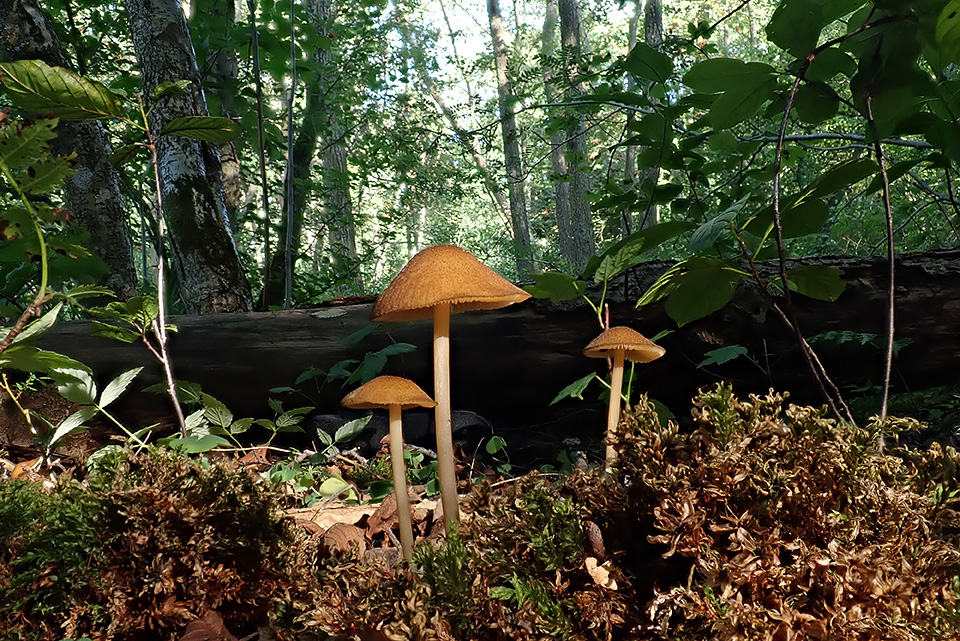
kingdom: Fungi
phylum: Basidiomycota
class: Agaricomycetes
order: Agaricales
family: Entolomataceae
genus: Entoloma
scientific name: Entoloma formosum
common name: brungul rødblad
